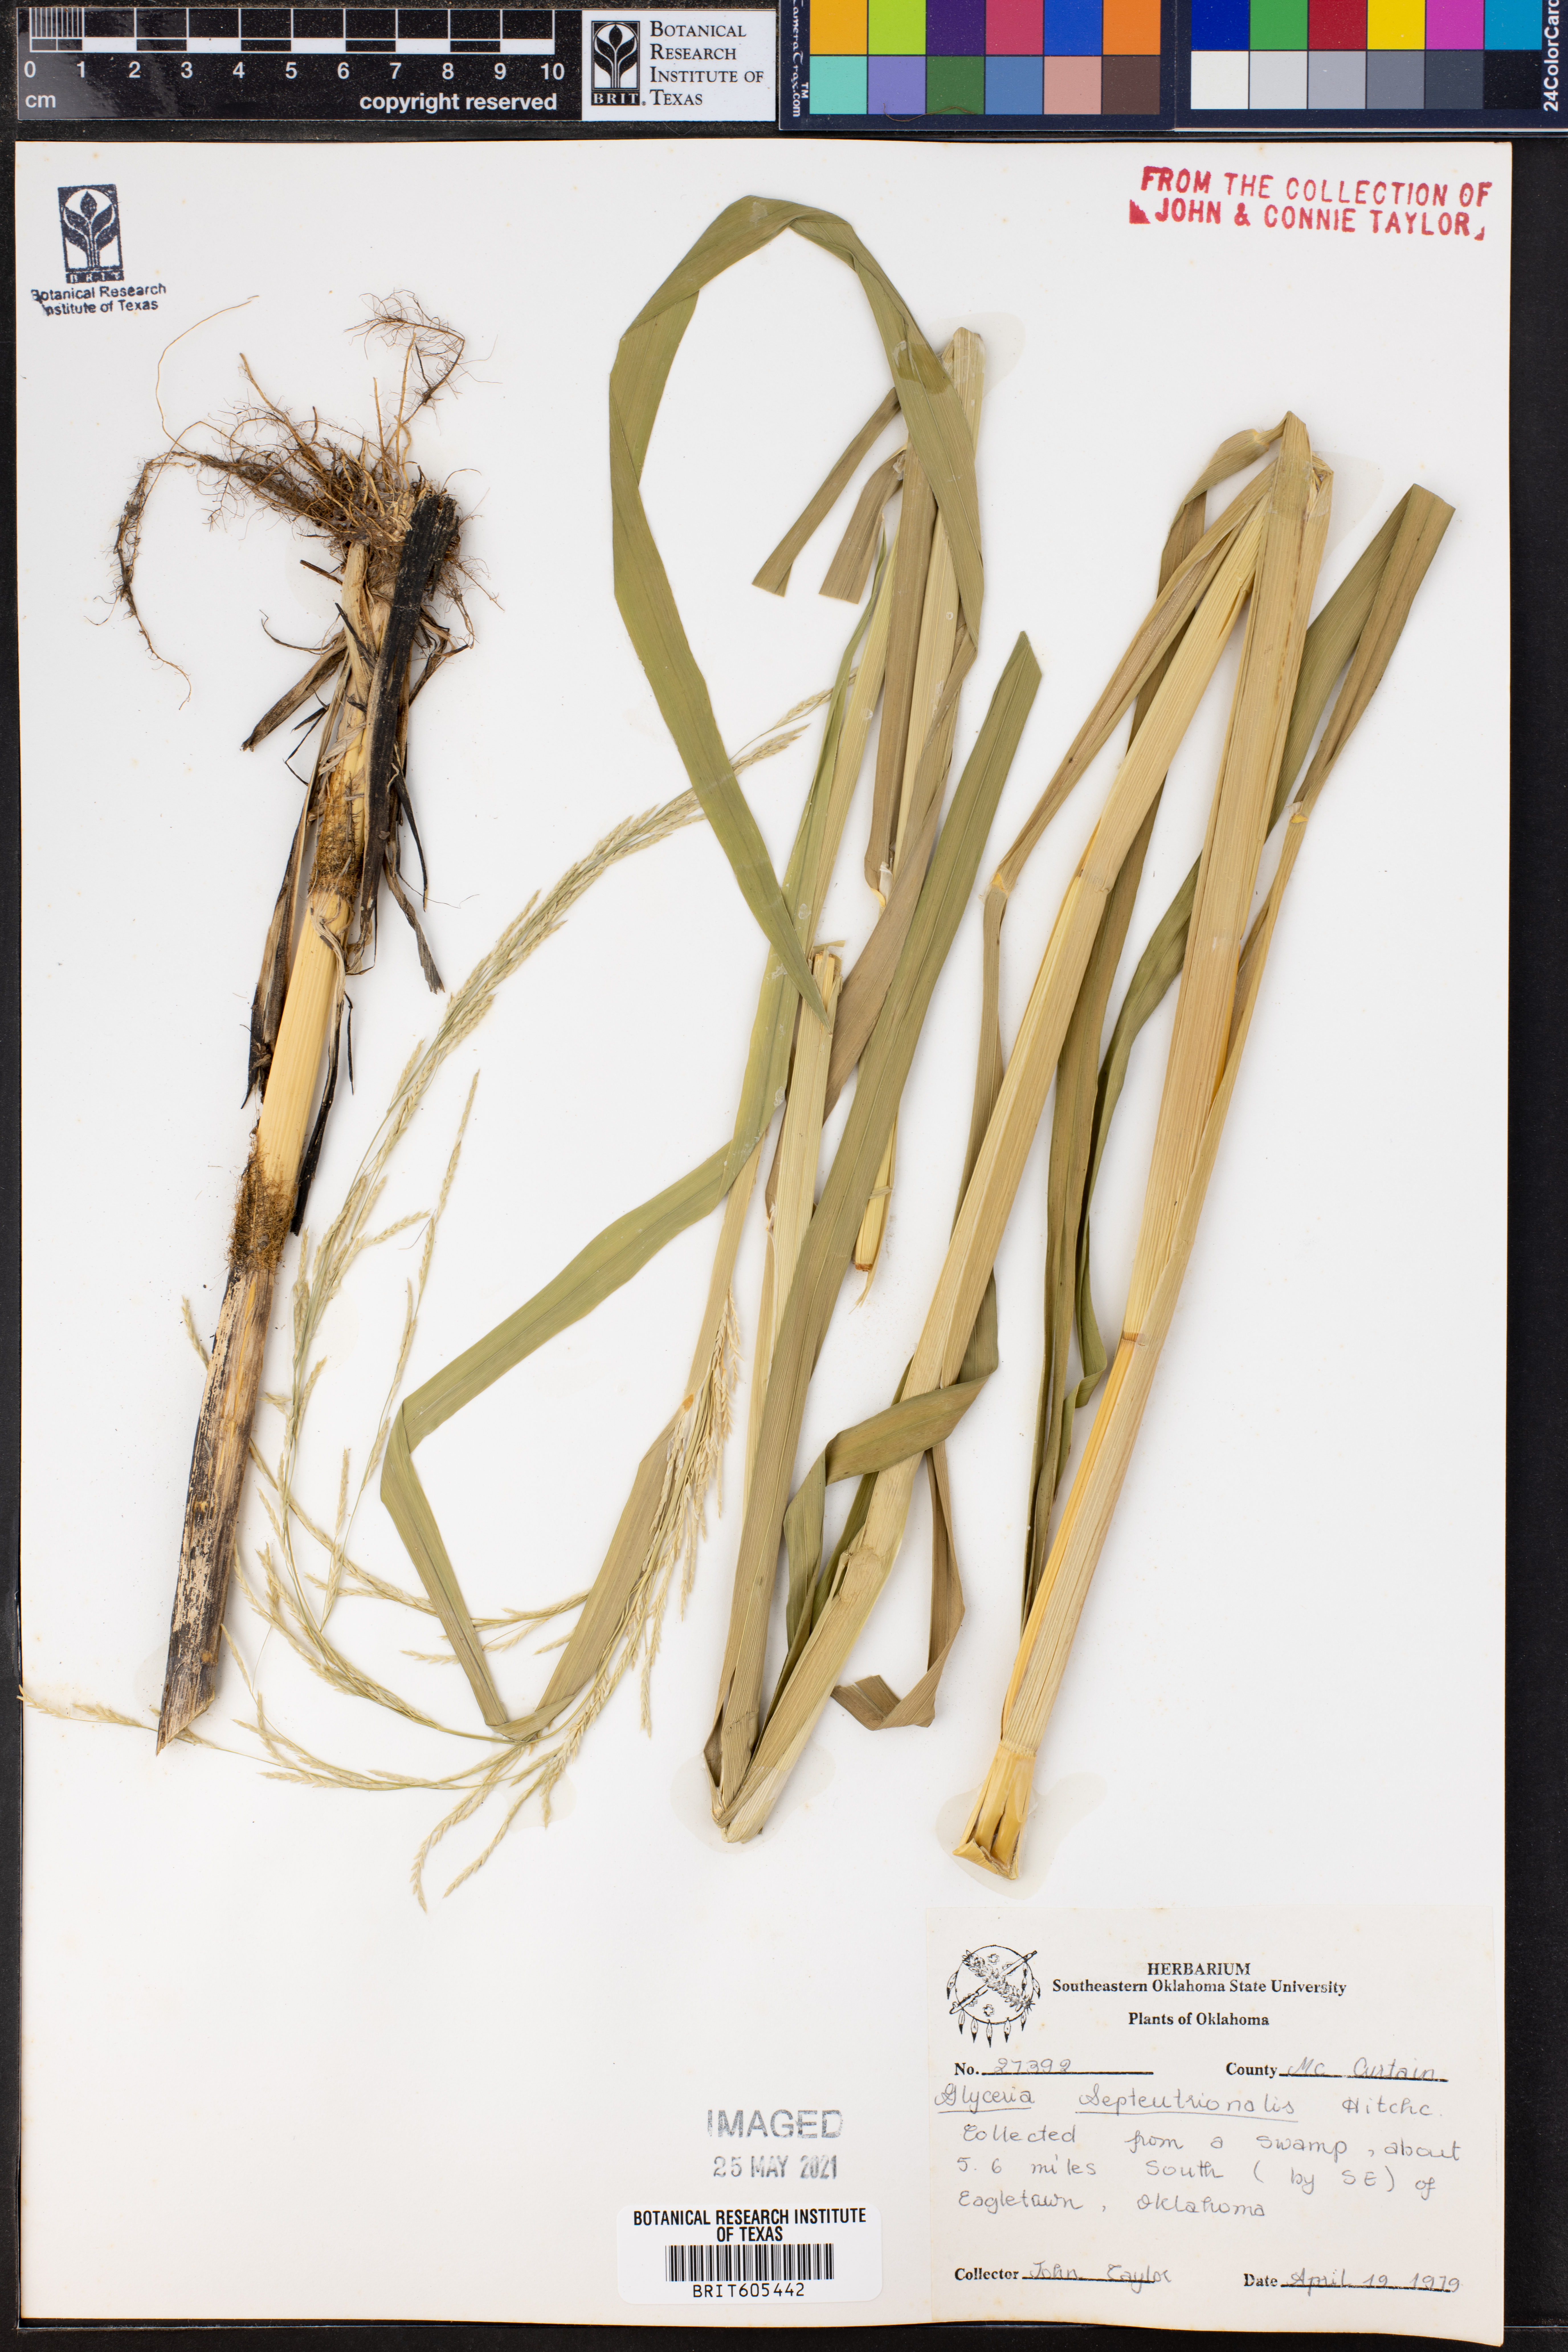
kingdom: Plantae
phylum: Tracheophyta
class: Liliopsida
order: Poales
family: Poaceae
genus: Glyceria
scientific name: Glyceria septentrionalis
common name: Eastern mannagrass
